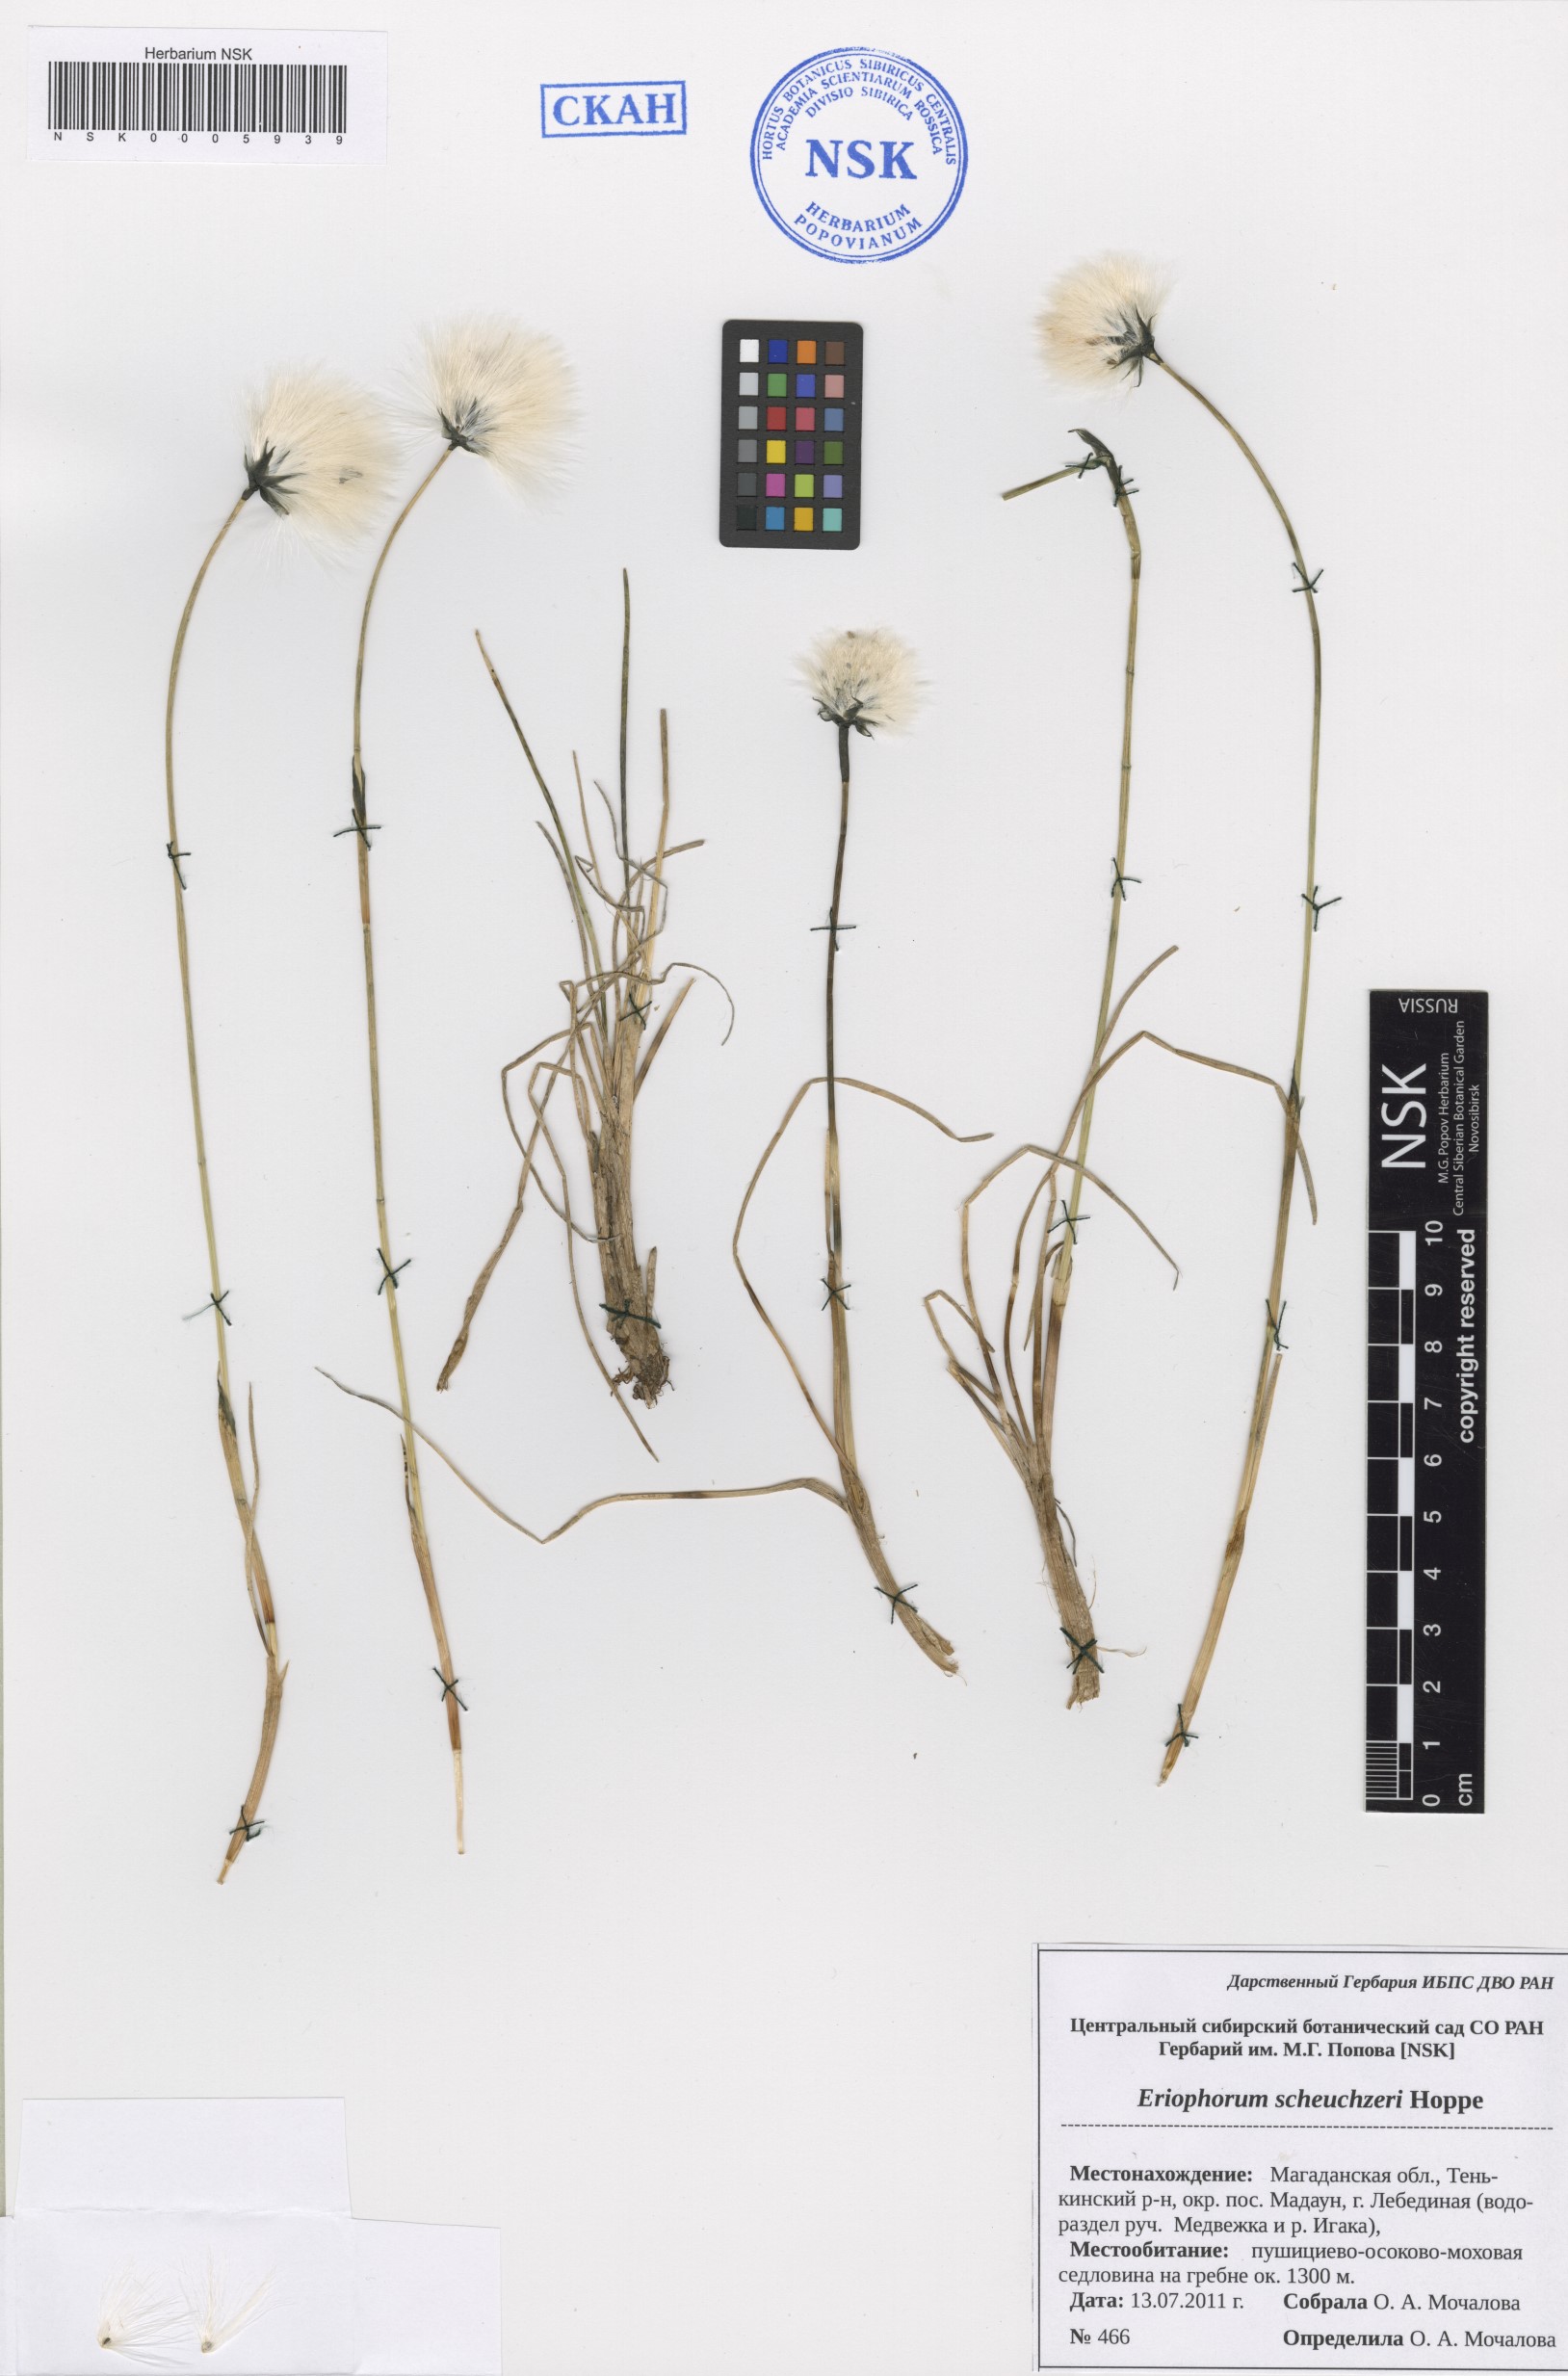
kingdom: Plantae
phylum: Tracheophyta
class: Liliopsida
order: Poales
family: Cyperaceae
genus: Eriophorum
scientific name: Eriophorum scheuchzeri
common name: Scheuchzer's cottongrass
